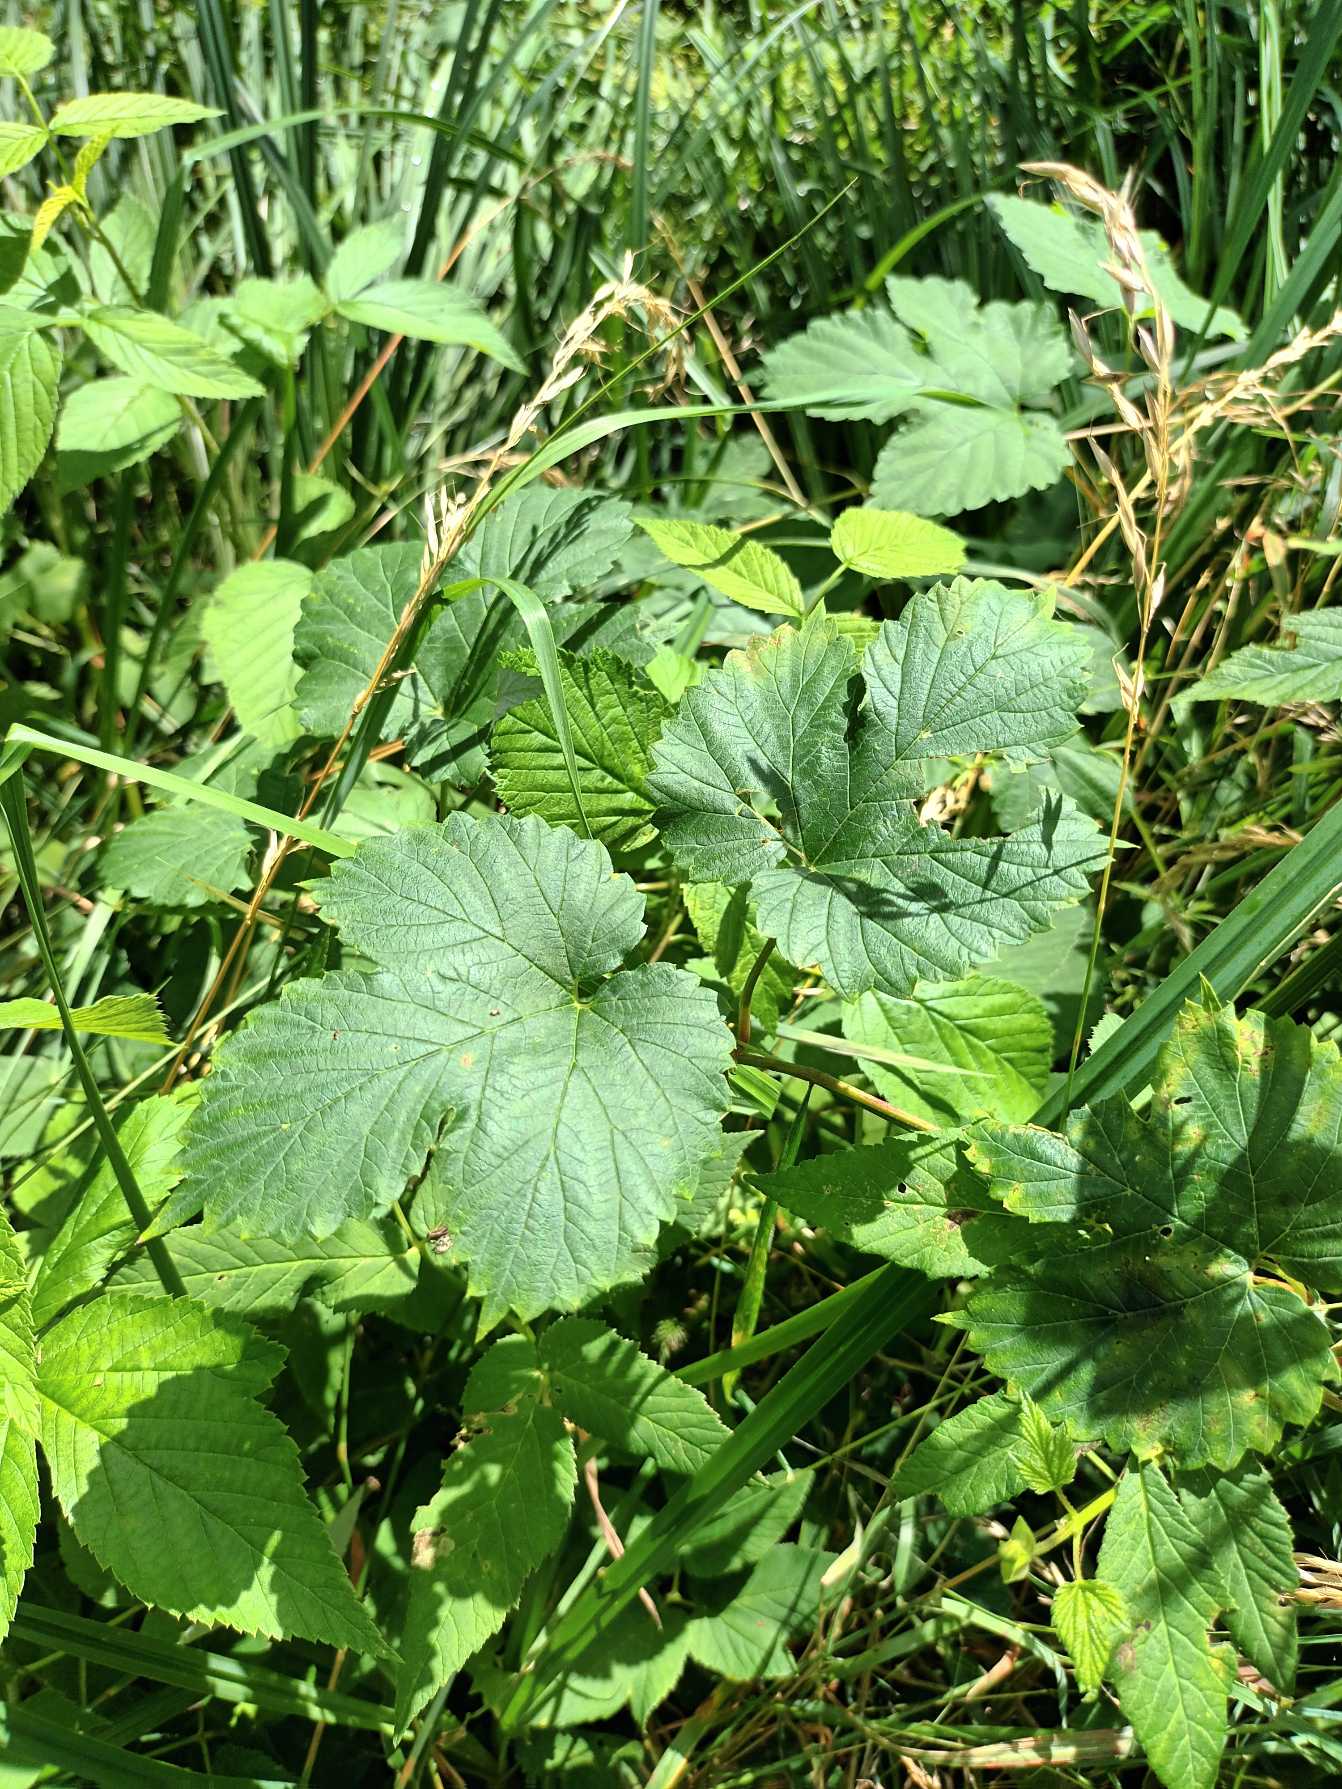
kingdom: Plantae
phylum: Tracheophyta
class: Magnoliopsida
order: Rosales
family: Cannabaceae
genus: Humulus
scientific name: Humulus lupulus
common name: Humle
